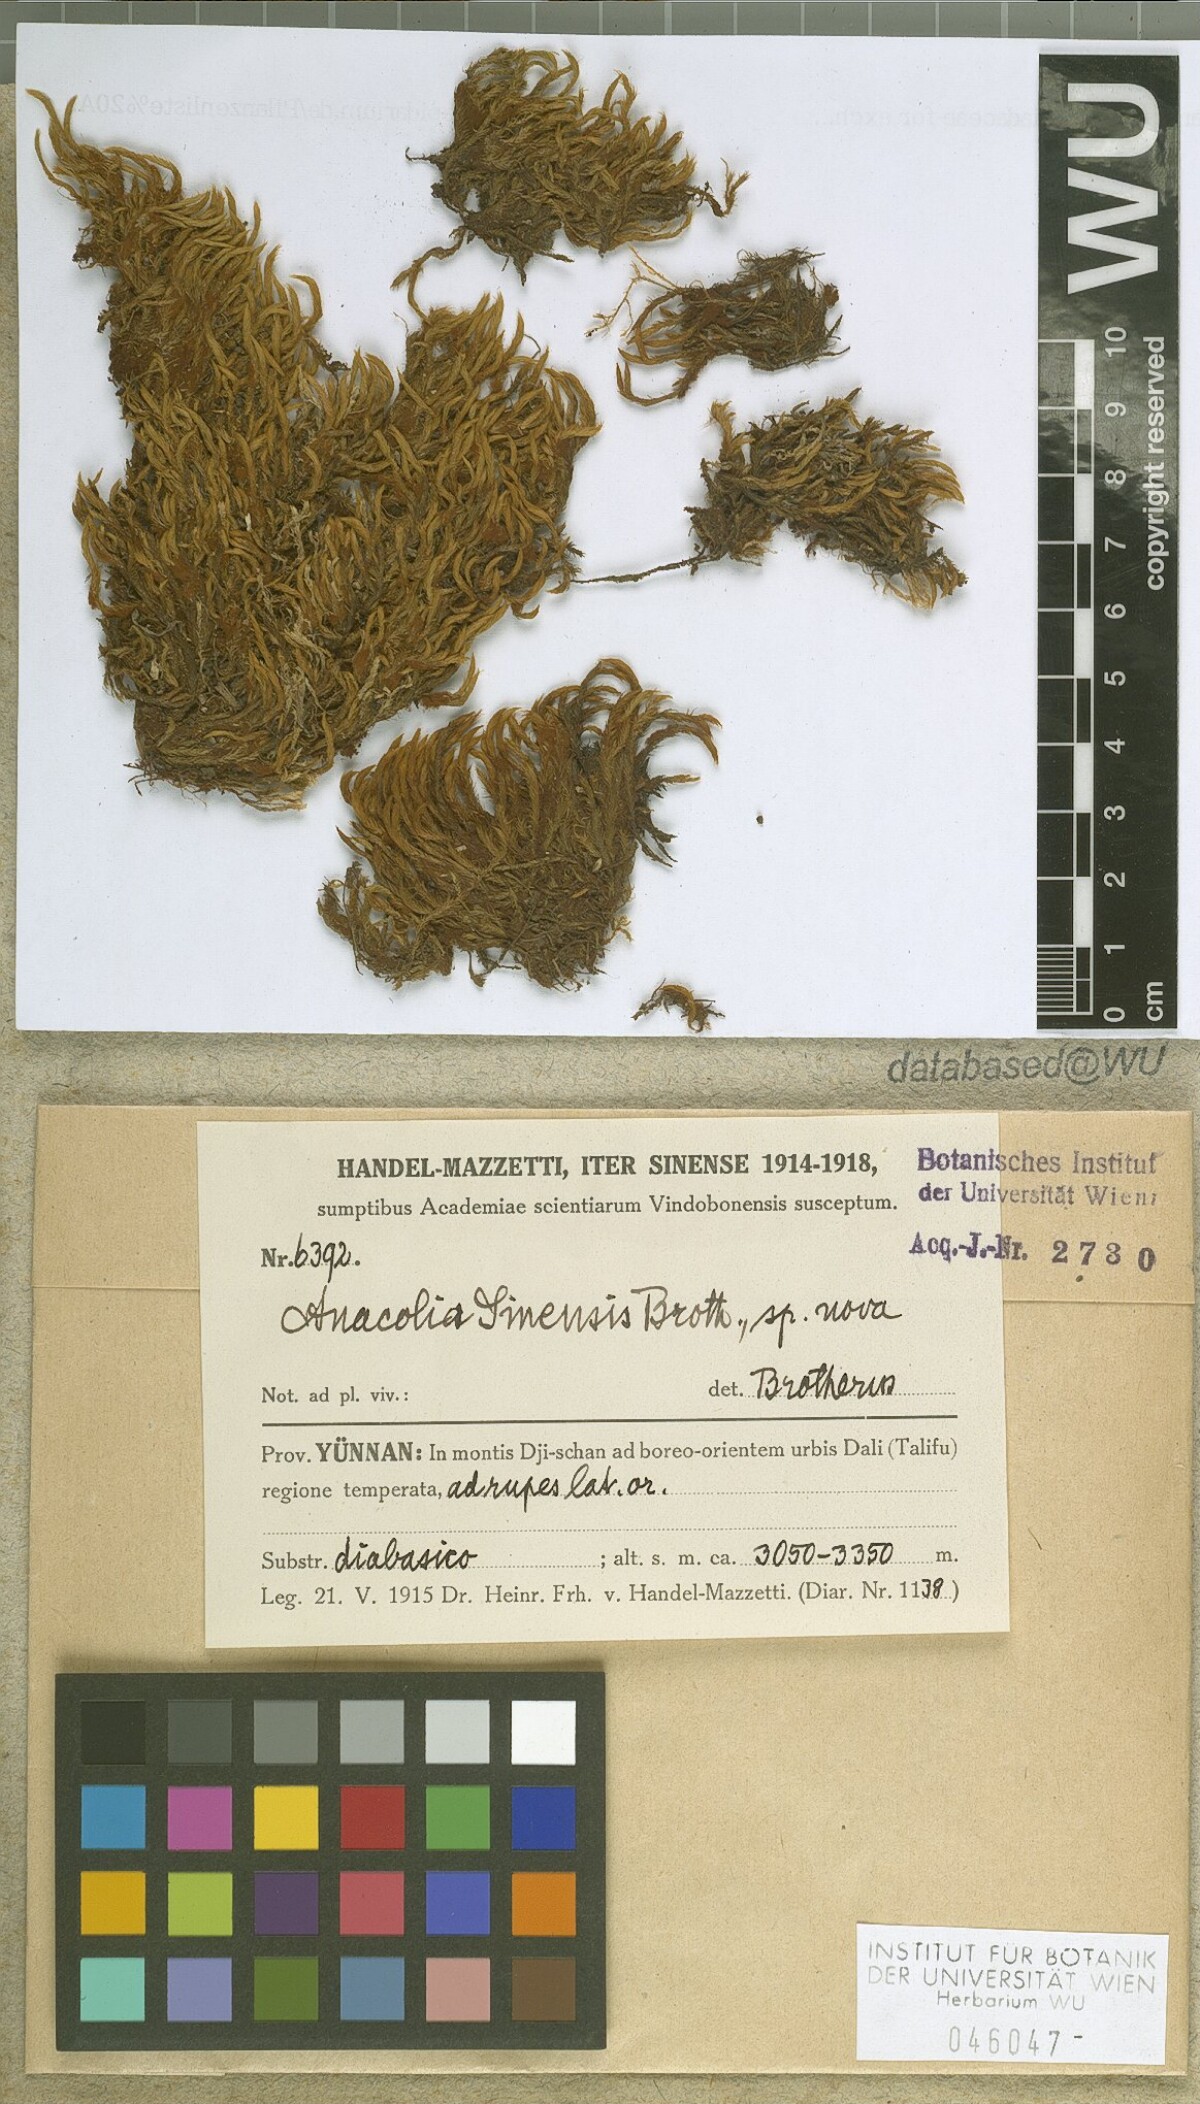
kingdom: Plantae
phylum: Bryophyta
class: Bryopsida
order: Bartramiales
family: Bartramiaceae
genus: Flowersia
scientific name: Flowersia sinensis
